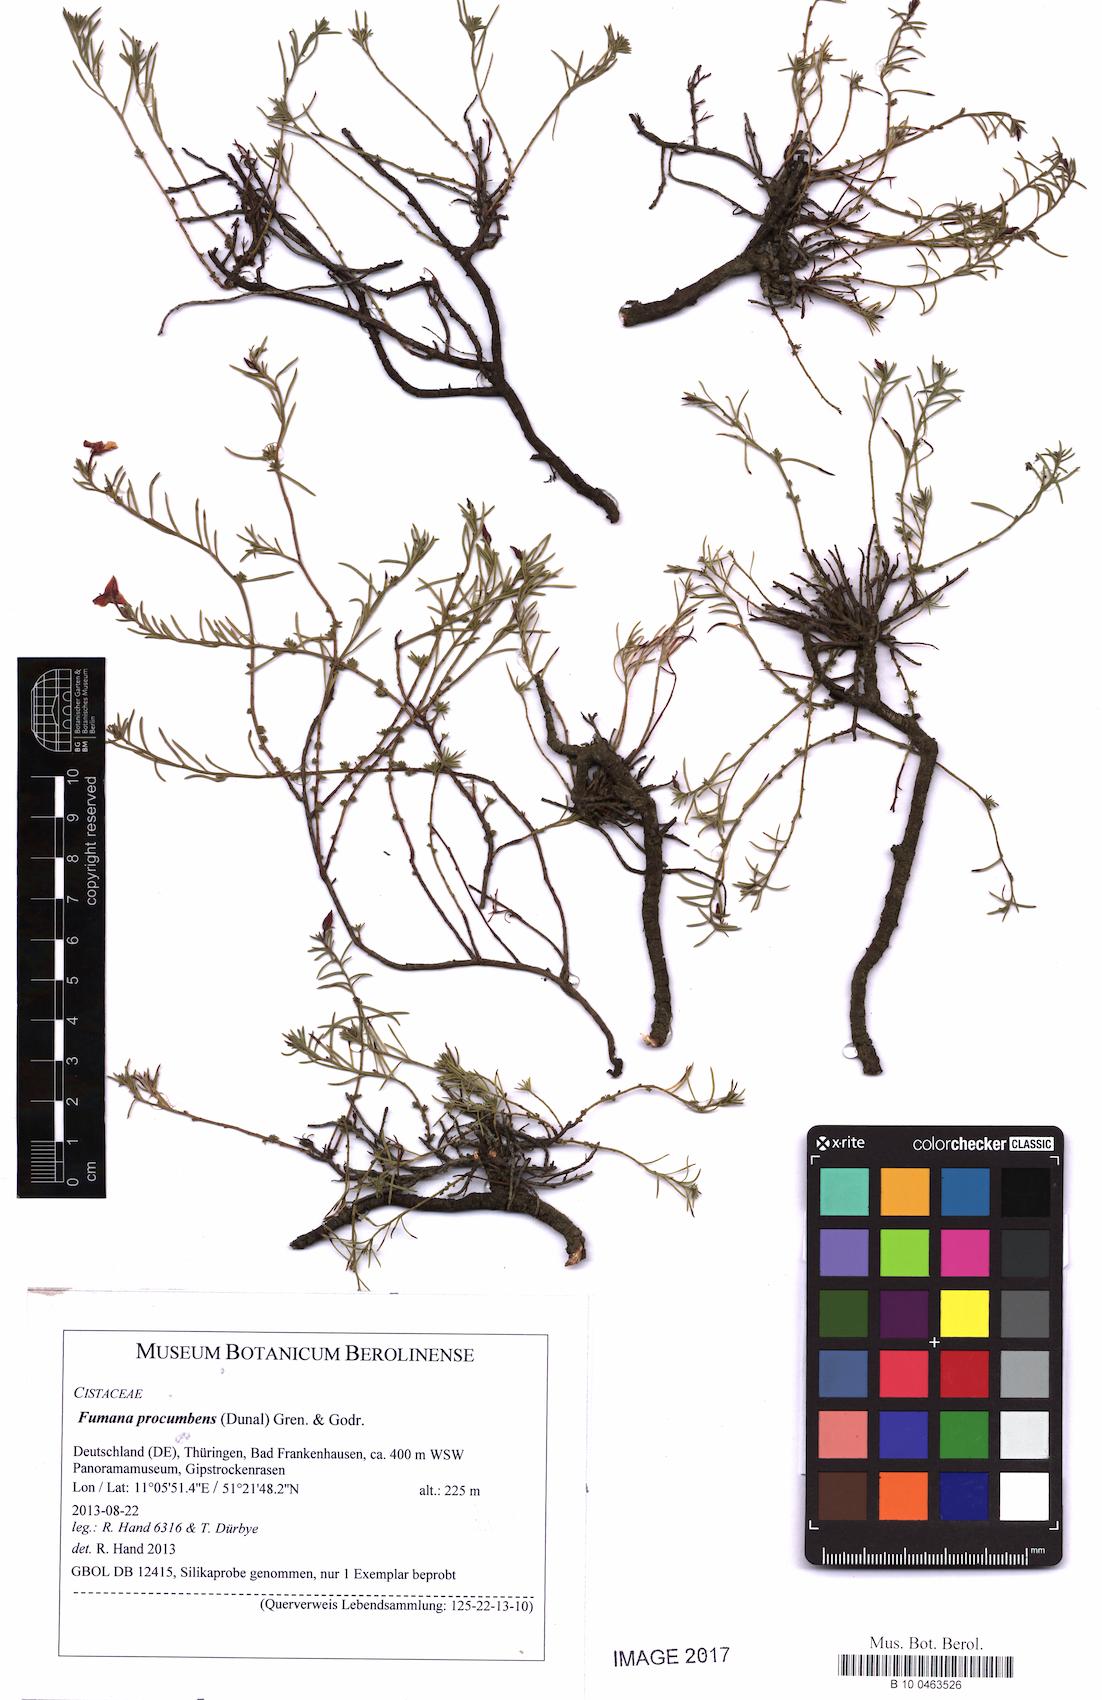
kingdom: Plantae
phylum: Tracheophyta
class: Magnoliopsida
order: Malvales
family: Cistaceae
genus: Fumana
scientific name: Fumana procumbens
